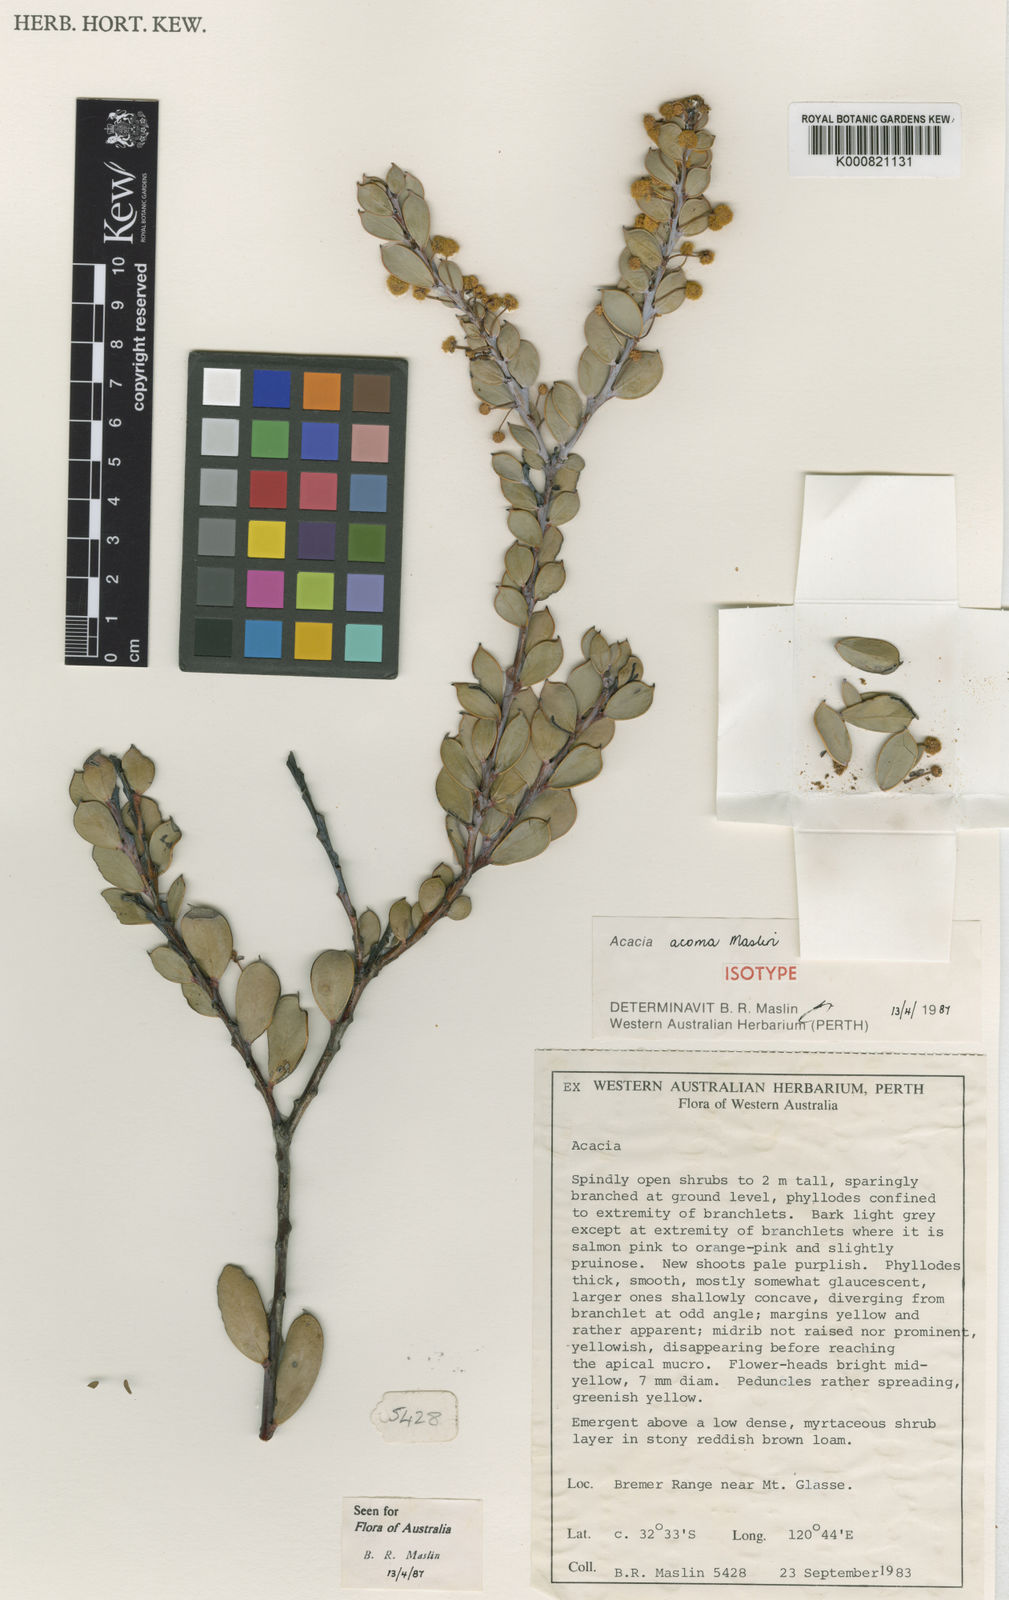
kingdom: Plantae
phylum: Tracheophyta
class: Magnoliopsida
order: Fabales
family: Fabaceae
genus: Acacia
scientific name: Acacia acoma
